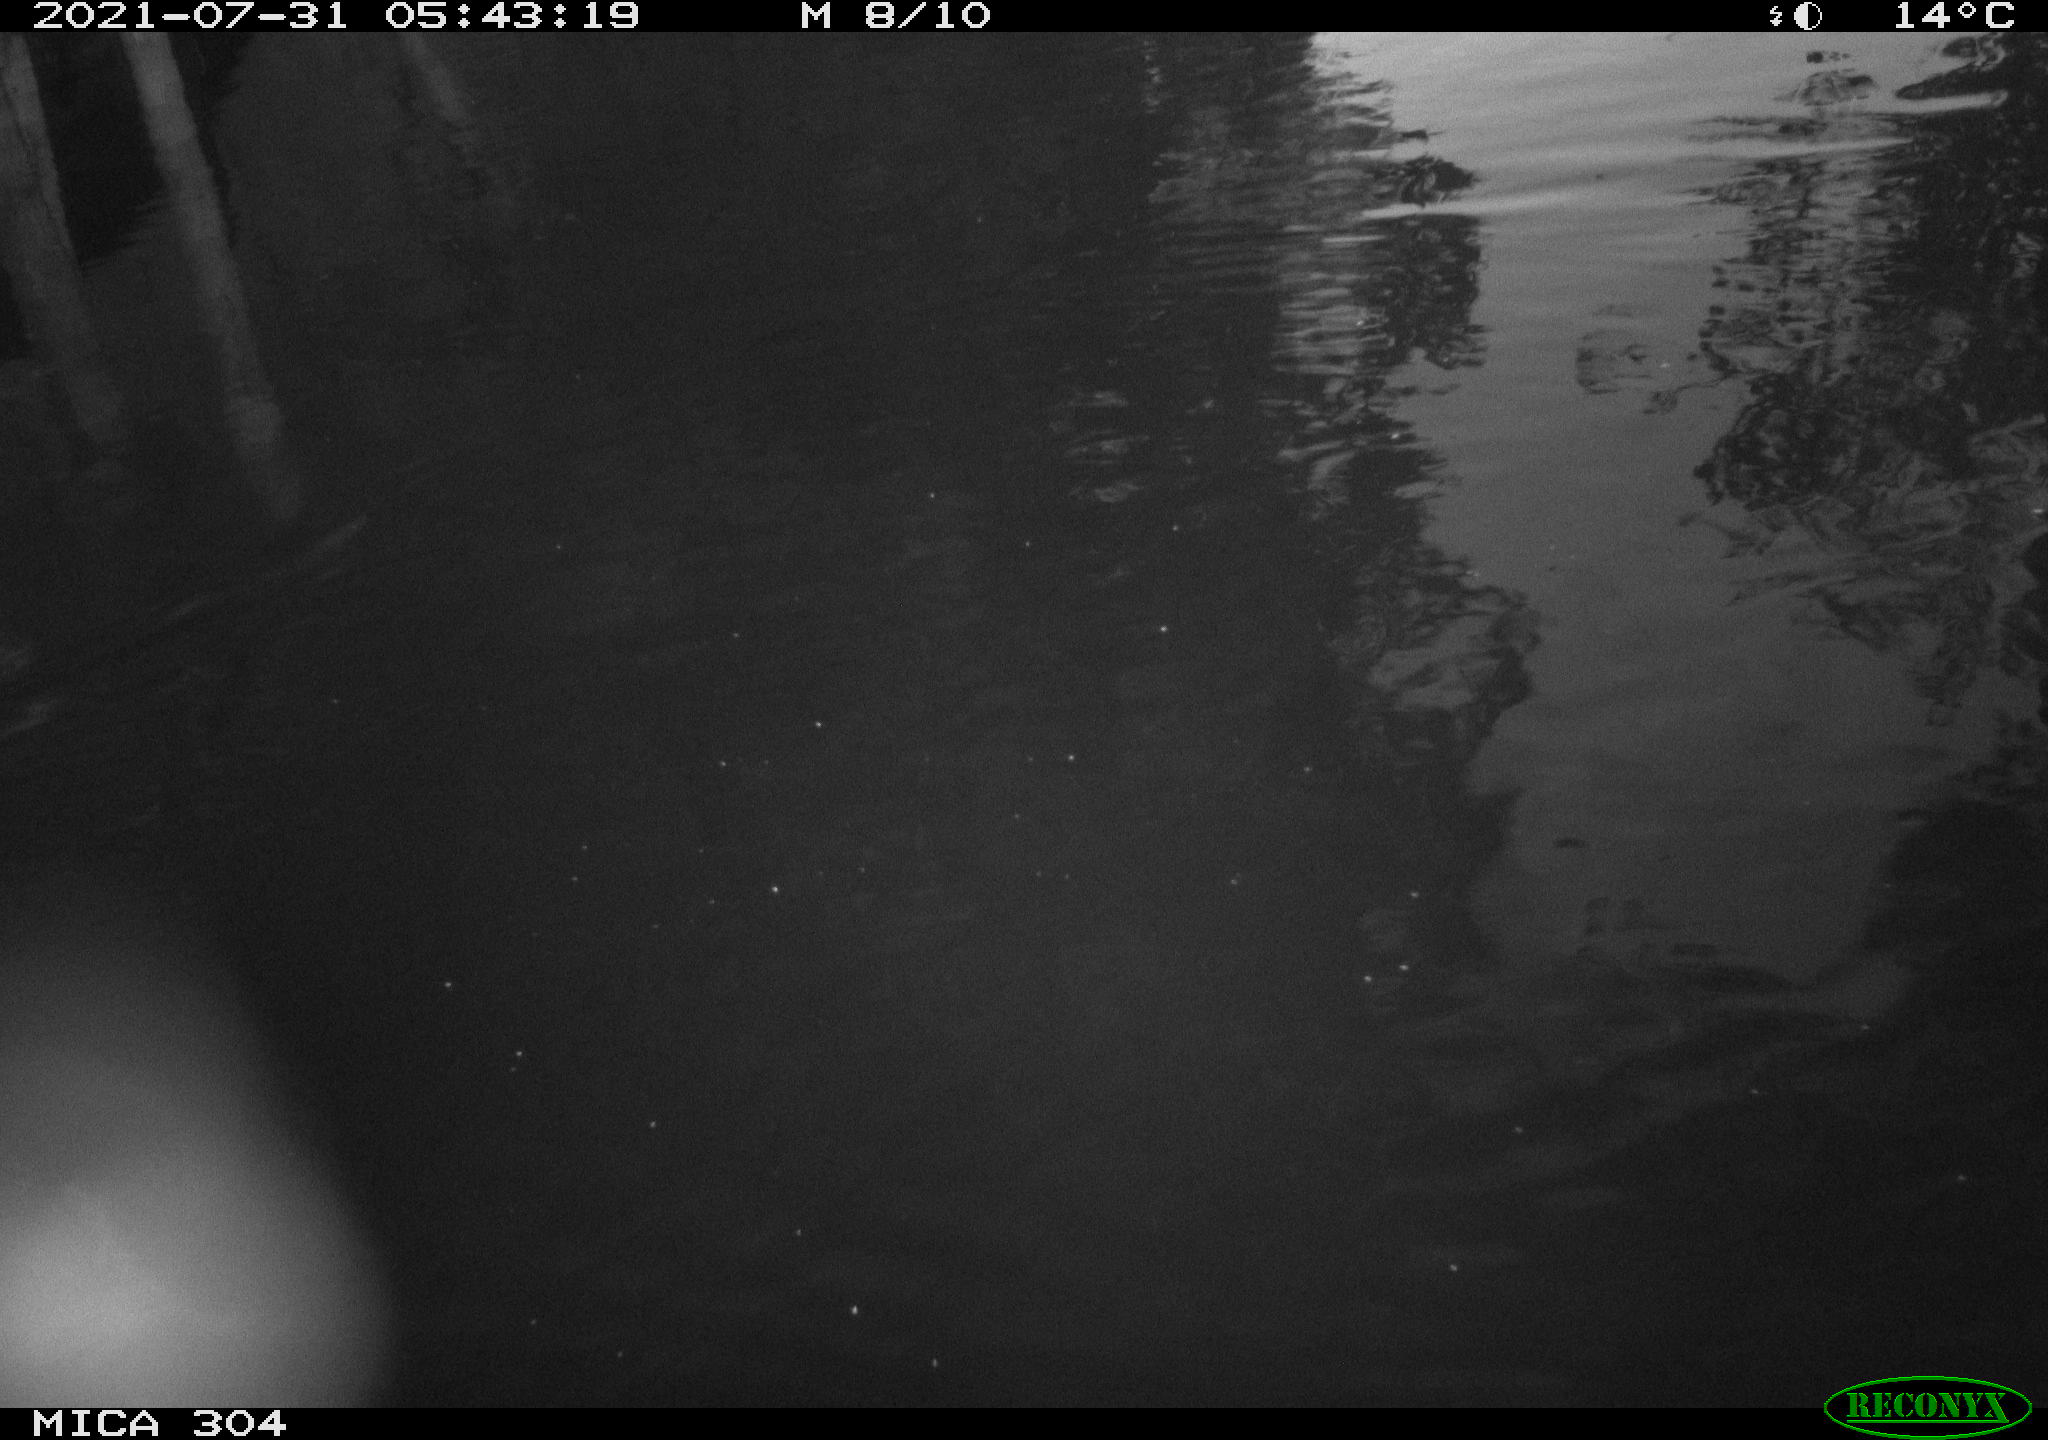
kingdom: Animalia
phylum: Chordata
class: Mammalia
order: Rodentia
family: Cricetidae
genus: Ondatra
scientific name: Ondatra zibethicus
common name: Muskrat
